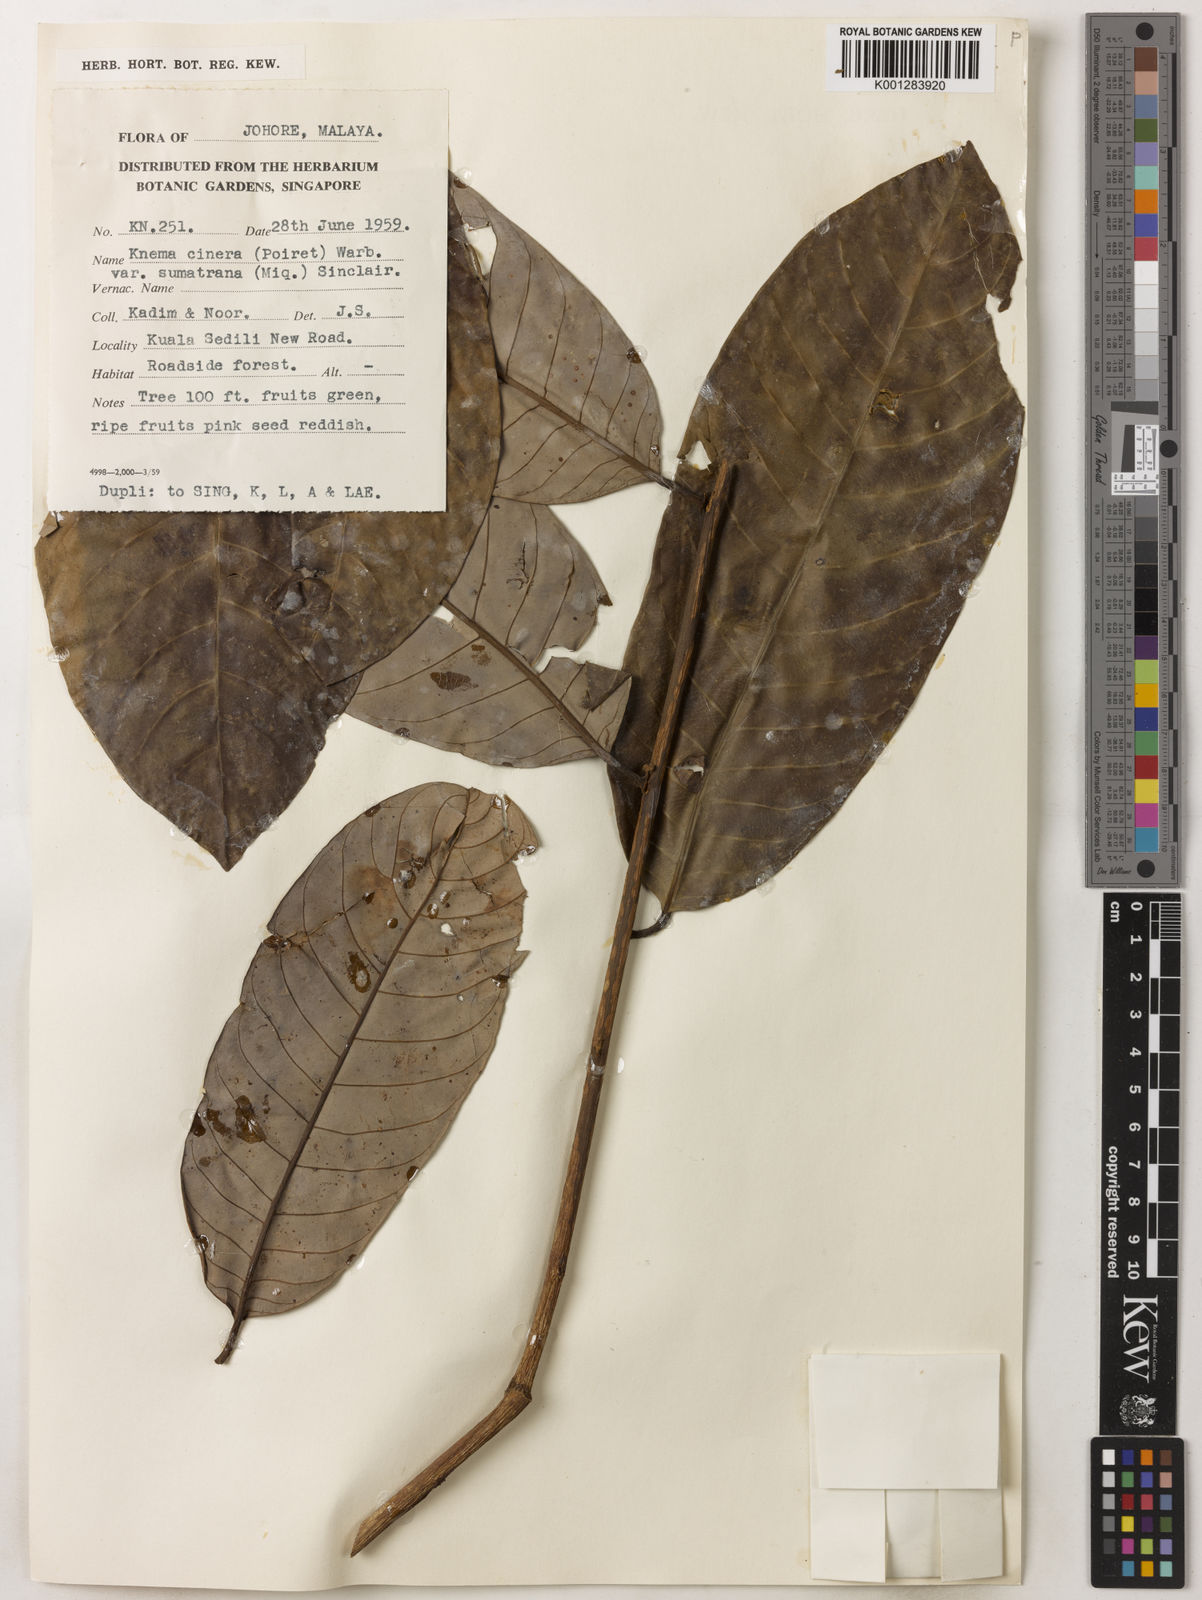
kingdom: Plantae
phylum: Tracheophyta
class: Magnoliopsida
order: Magnoliales
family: Myristicaceae
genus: Knema
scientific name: Knema
